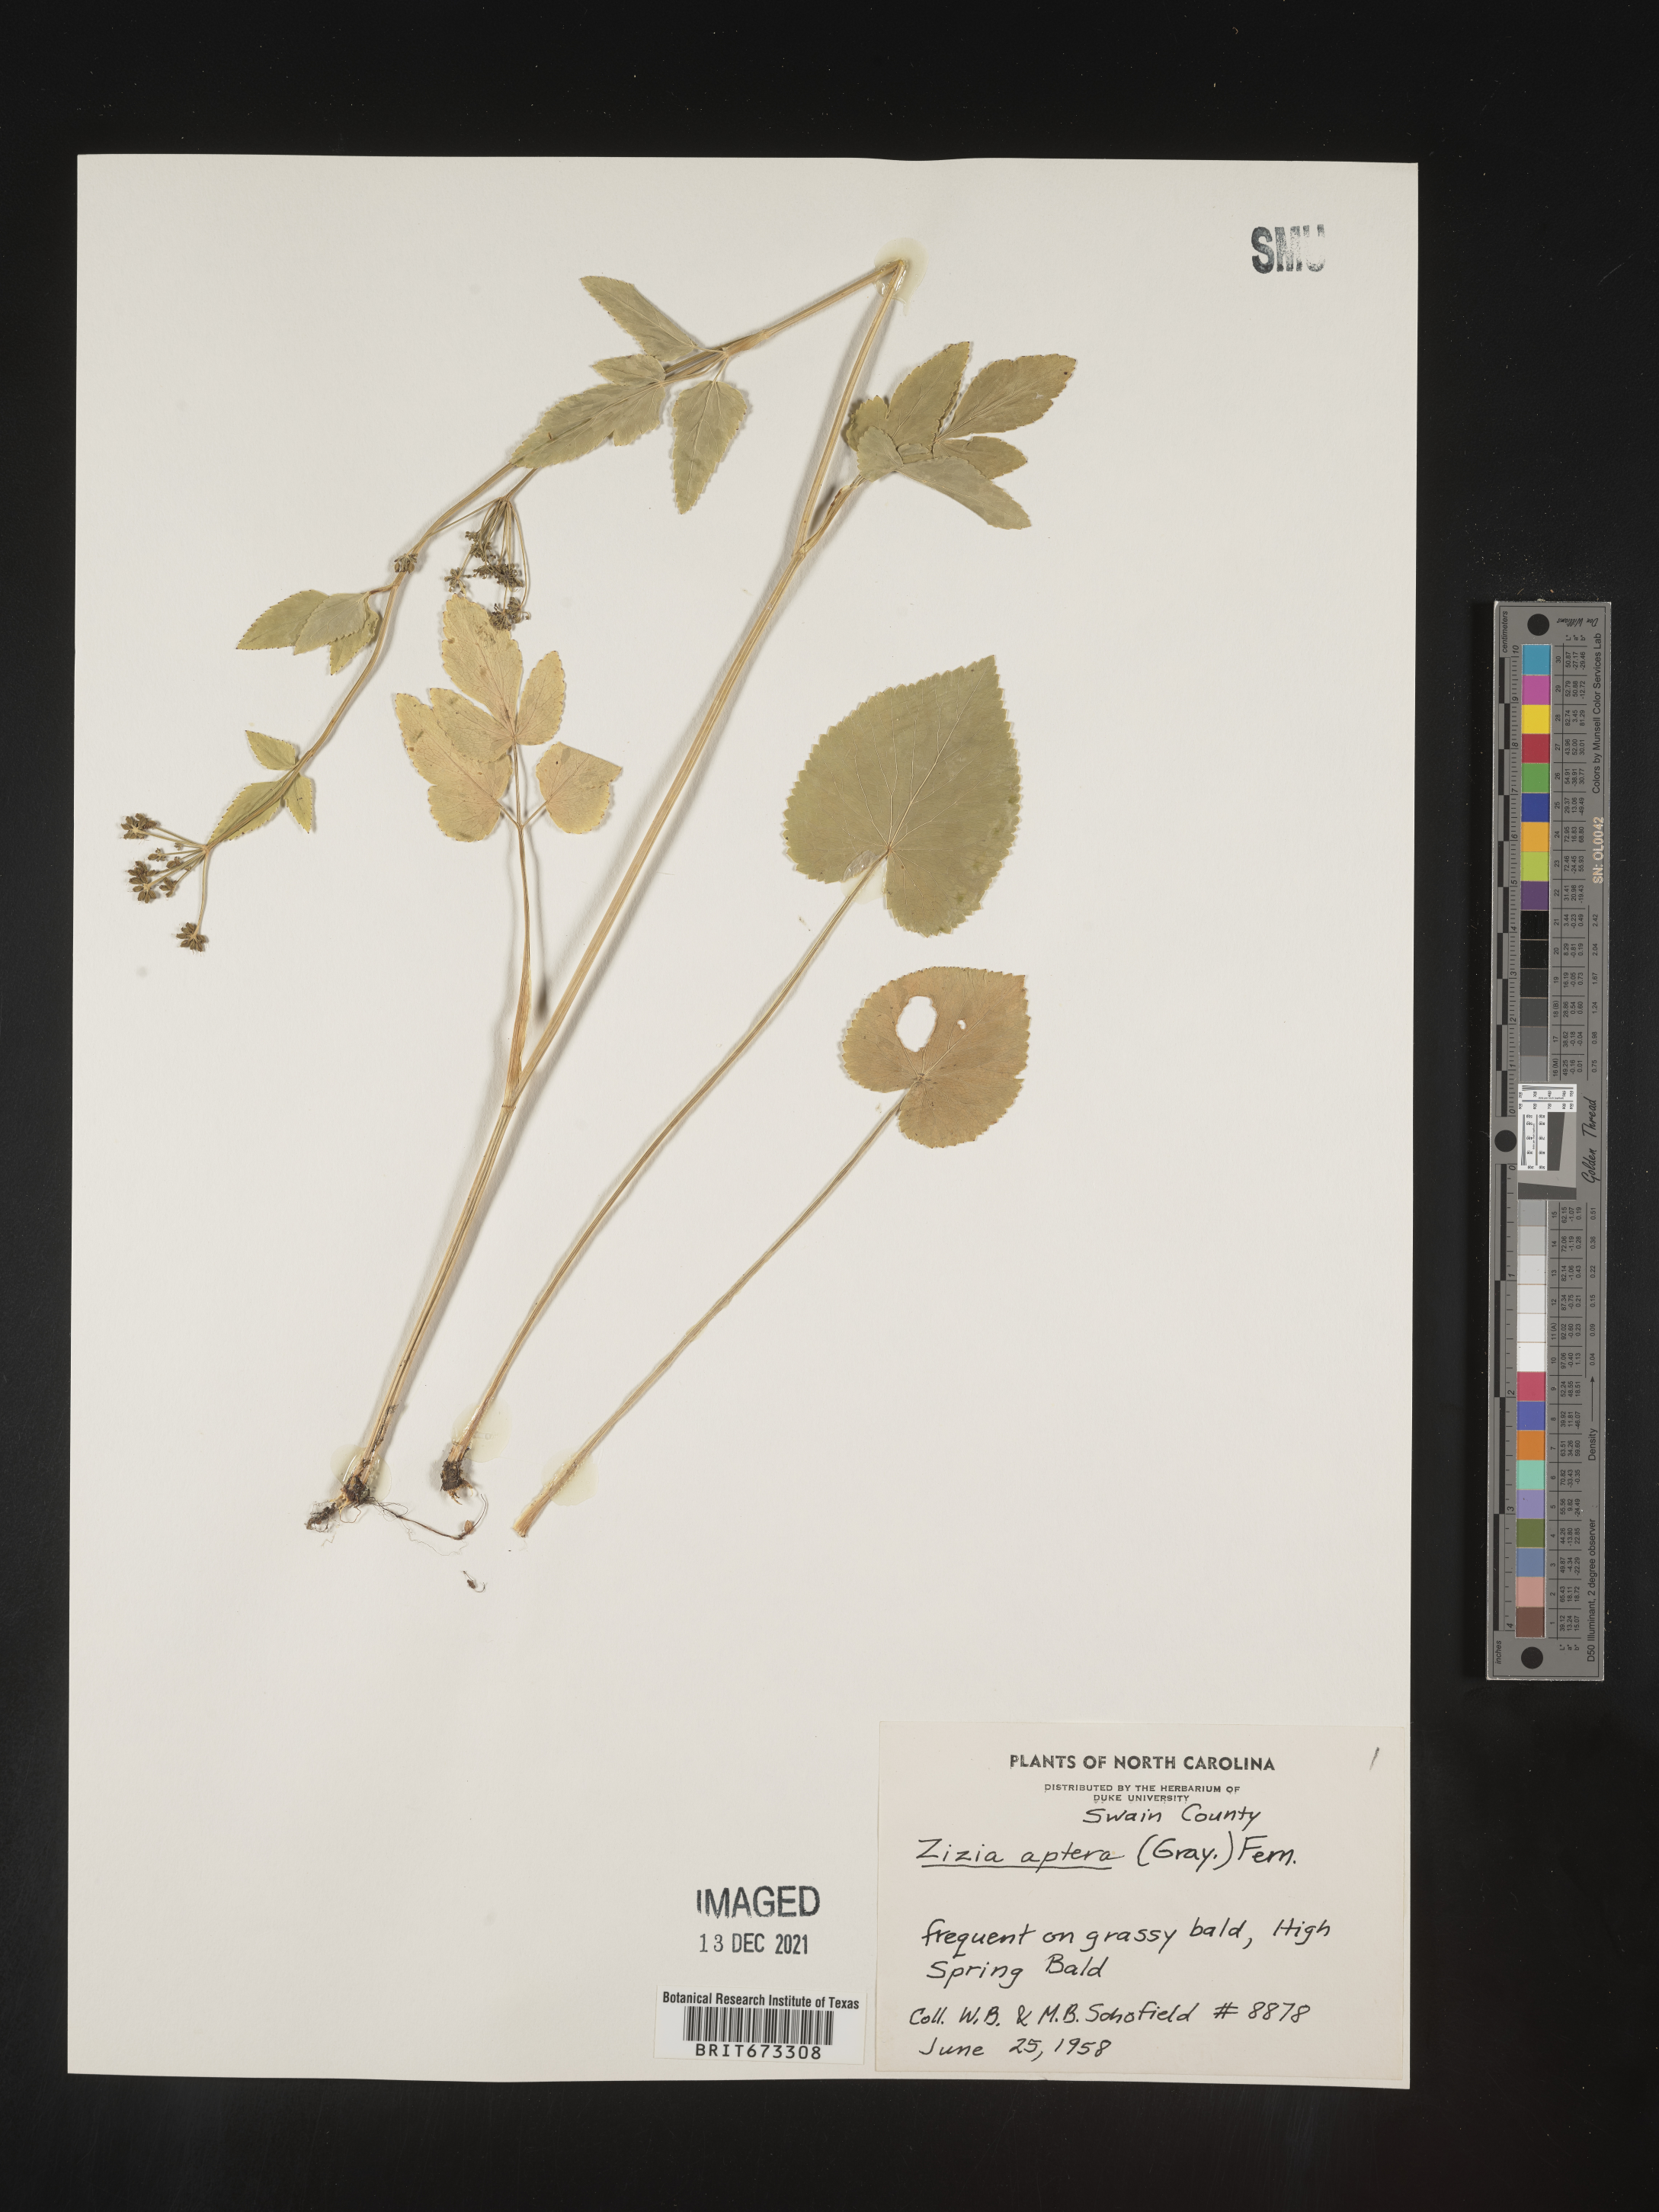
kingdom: Plantae
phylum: Tracheophyta
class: Magnoliopsida
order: Apiales
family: Apiaceae
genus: Zizia
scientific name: Zizia aptera
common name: Heart-leaved alexanders
